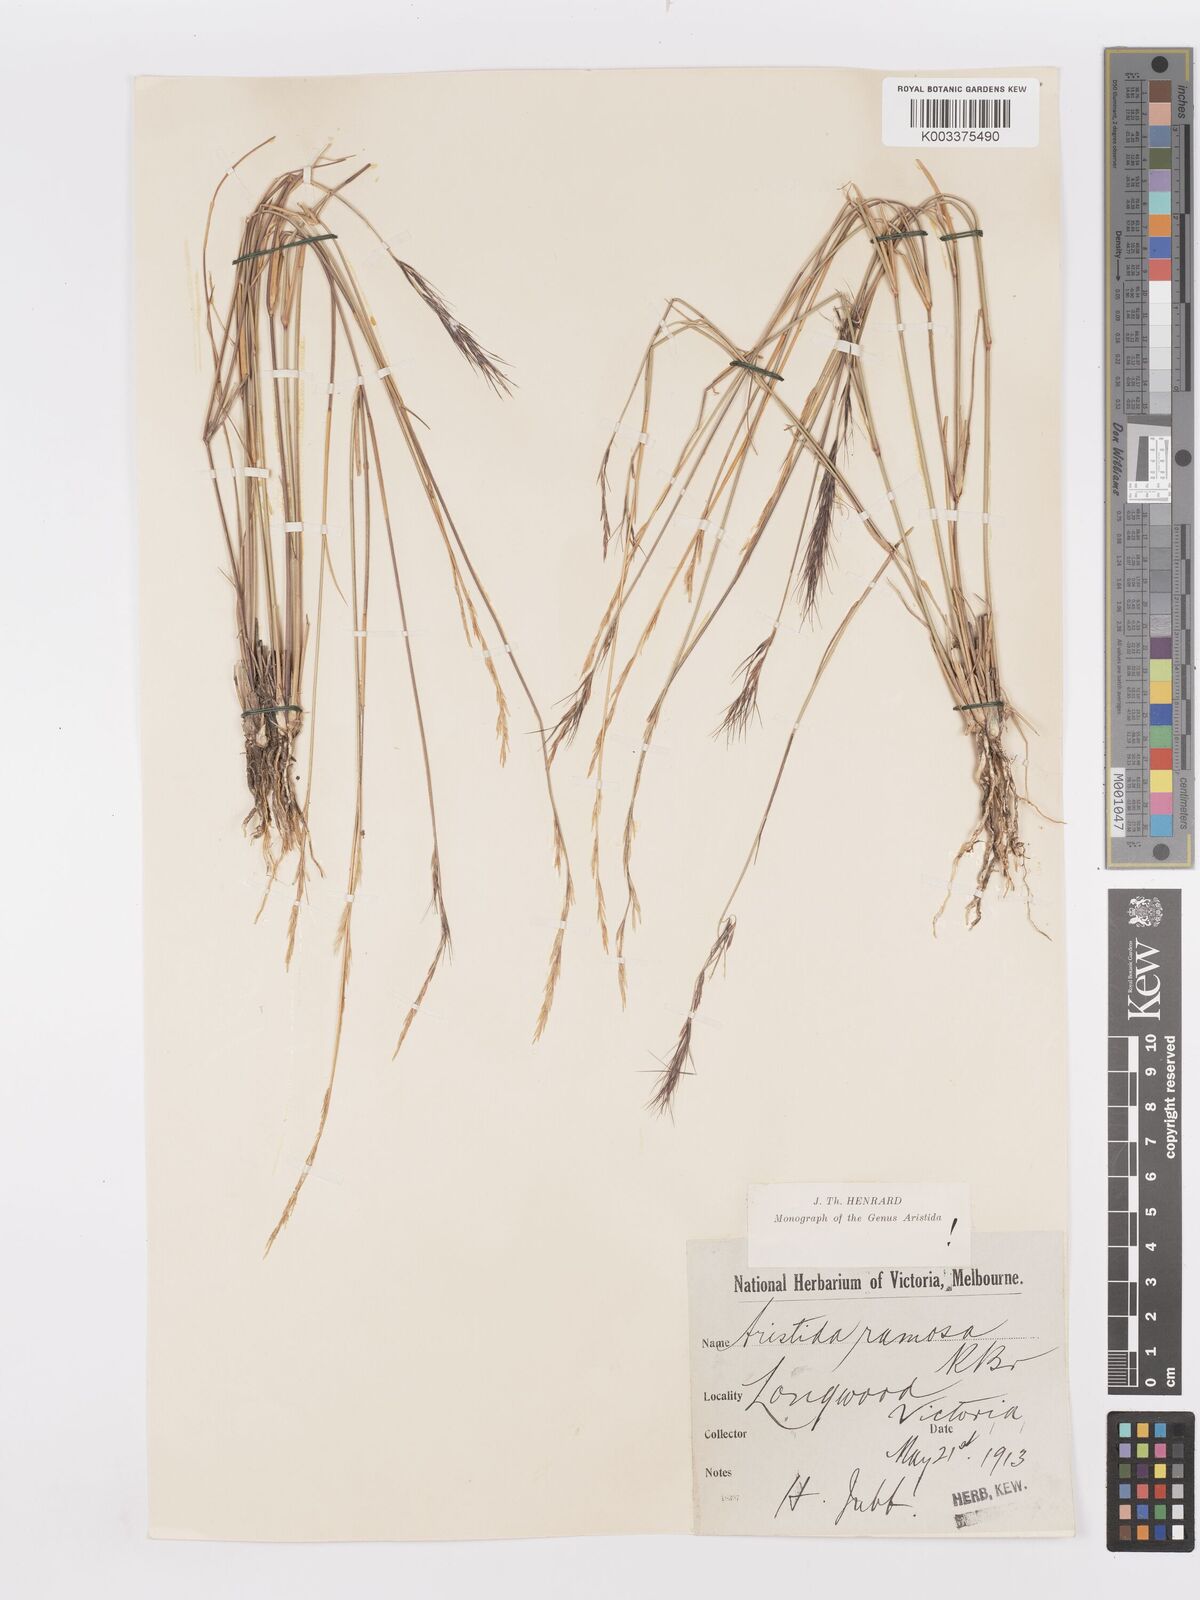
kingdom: Plantae
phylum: Tracheophyta
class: Liliopsida
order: Poales
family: Poaceae
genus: Aristida
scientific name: Aristida ramosa
